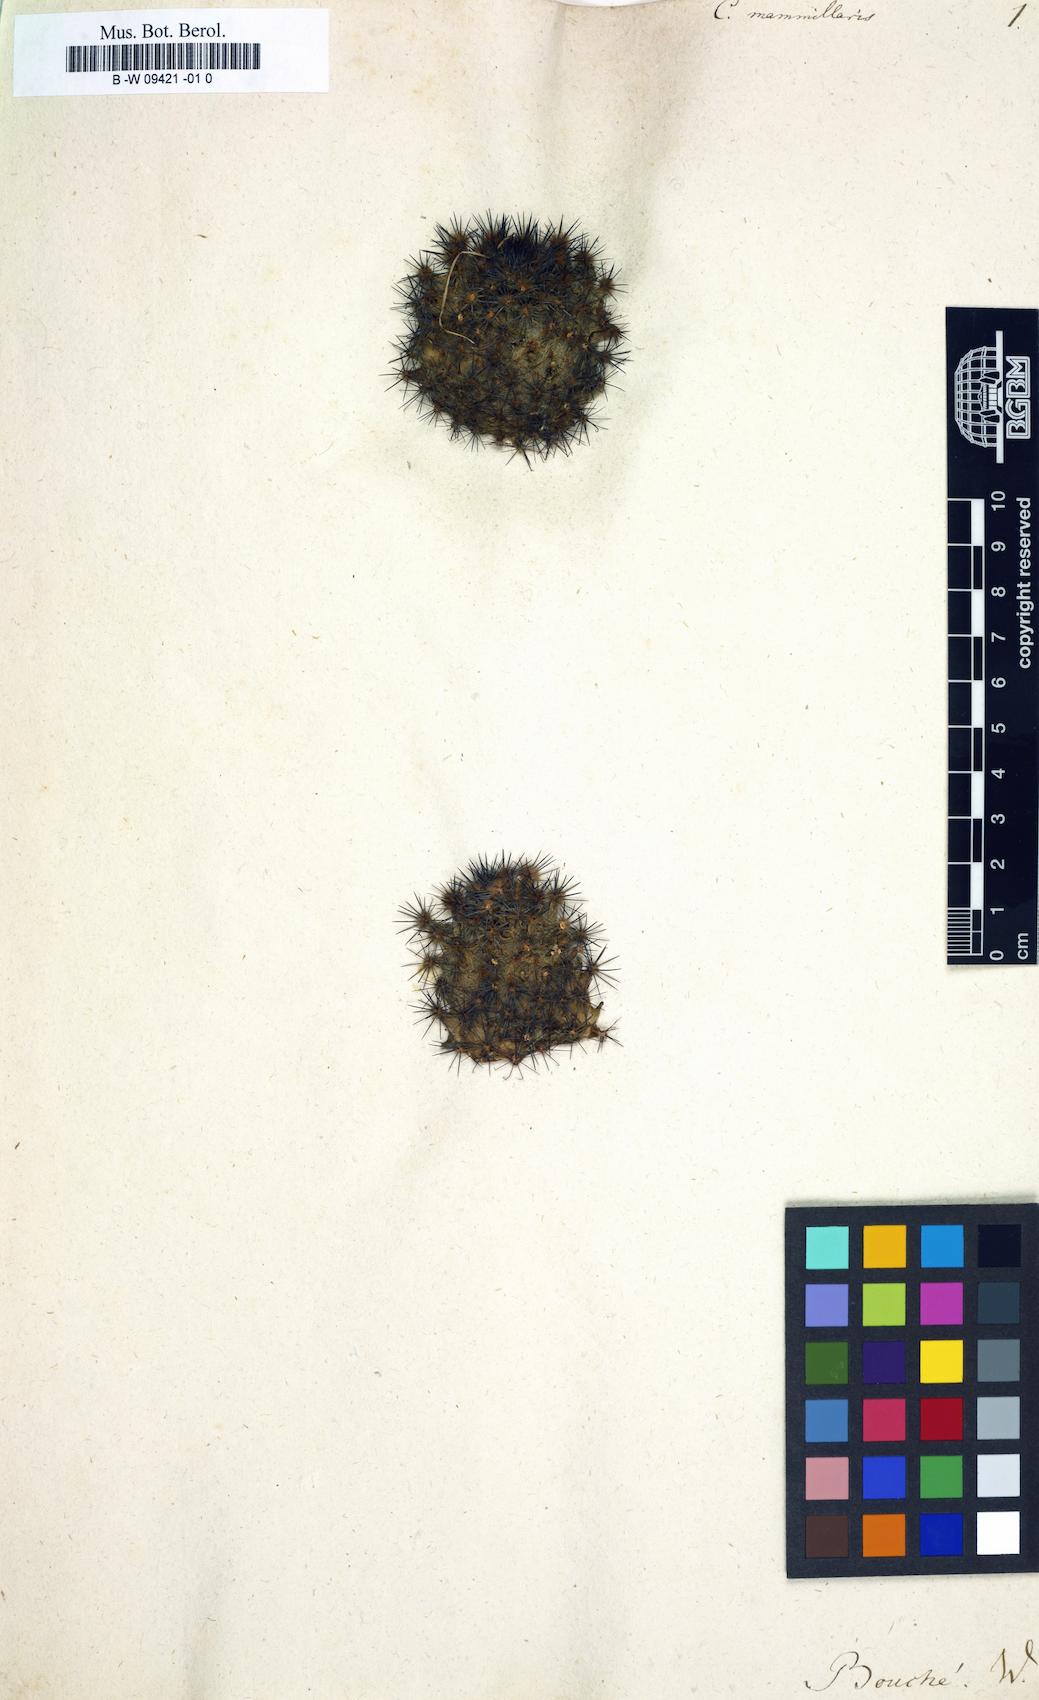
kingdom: Plantae
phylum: Tracheophyta
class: Magnoliopsida
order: Caryophyllales
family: Cactaceae
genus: Mammillaria
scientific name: Mammillaria mammillaris
